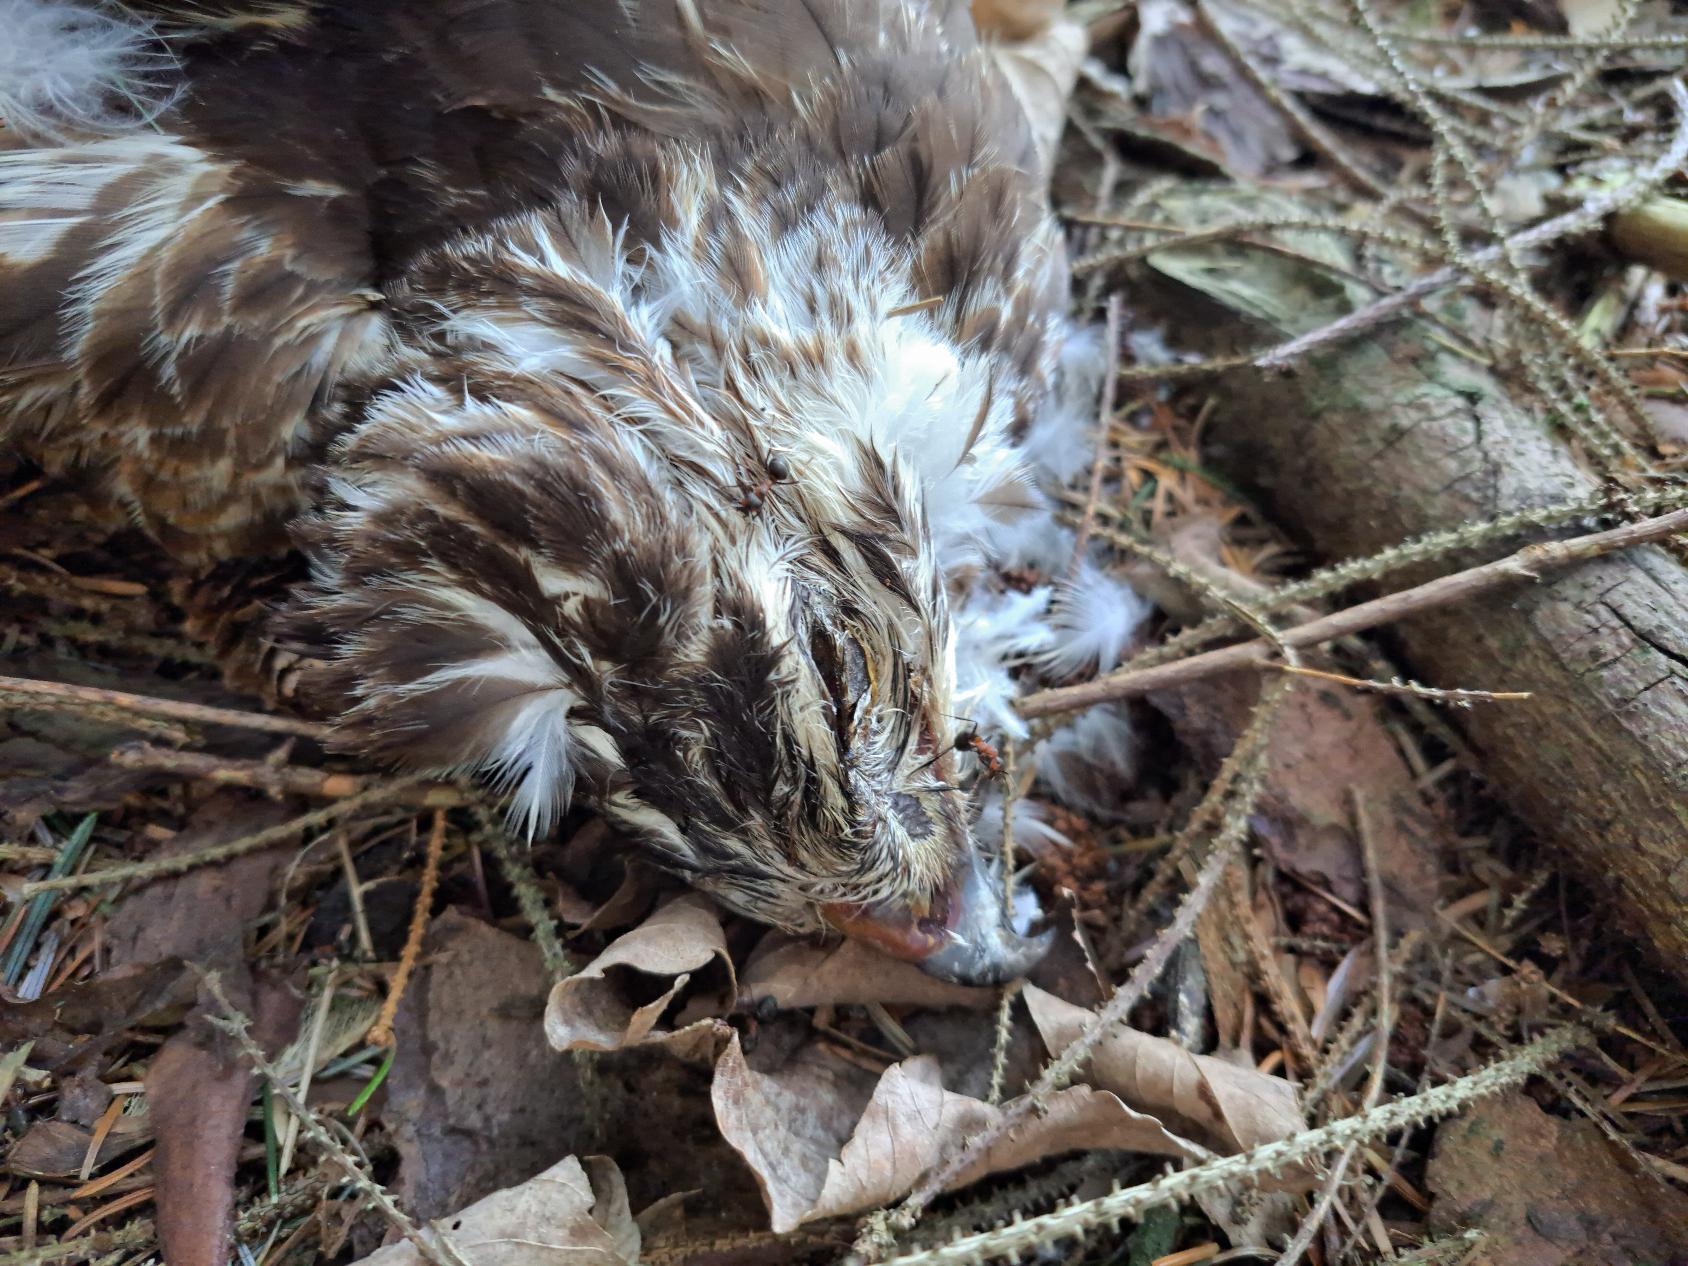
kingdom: Animalia
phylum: Chordata
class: Aves
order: Accipitriformes
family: Accipitridae
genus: Buteo
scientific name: Buteo buteo
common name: Musvåge
